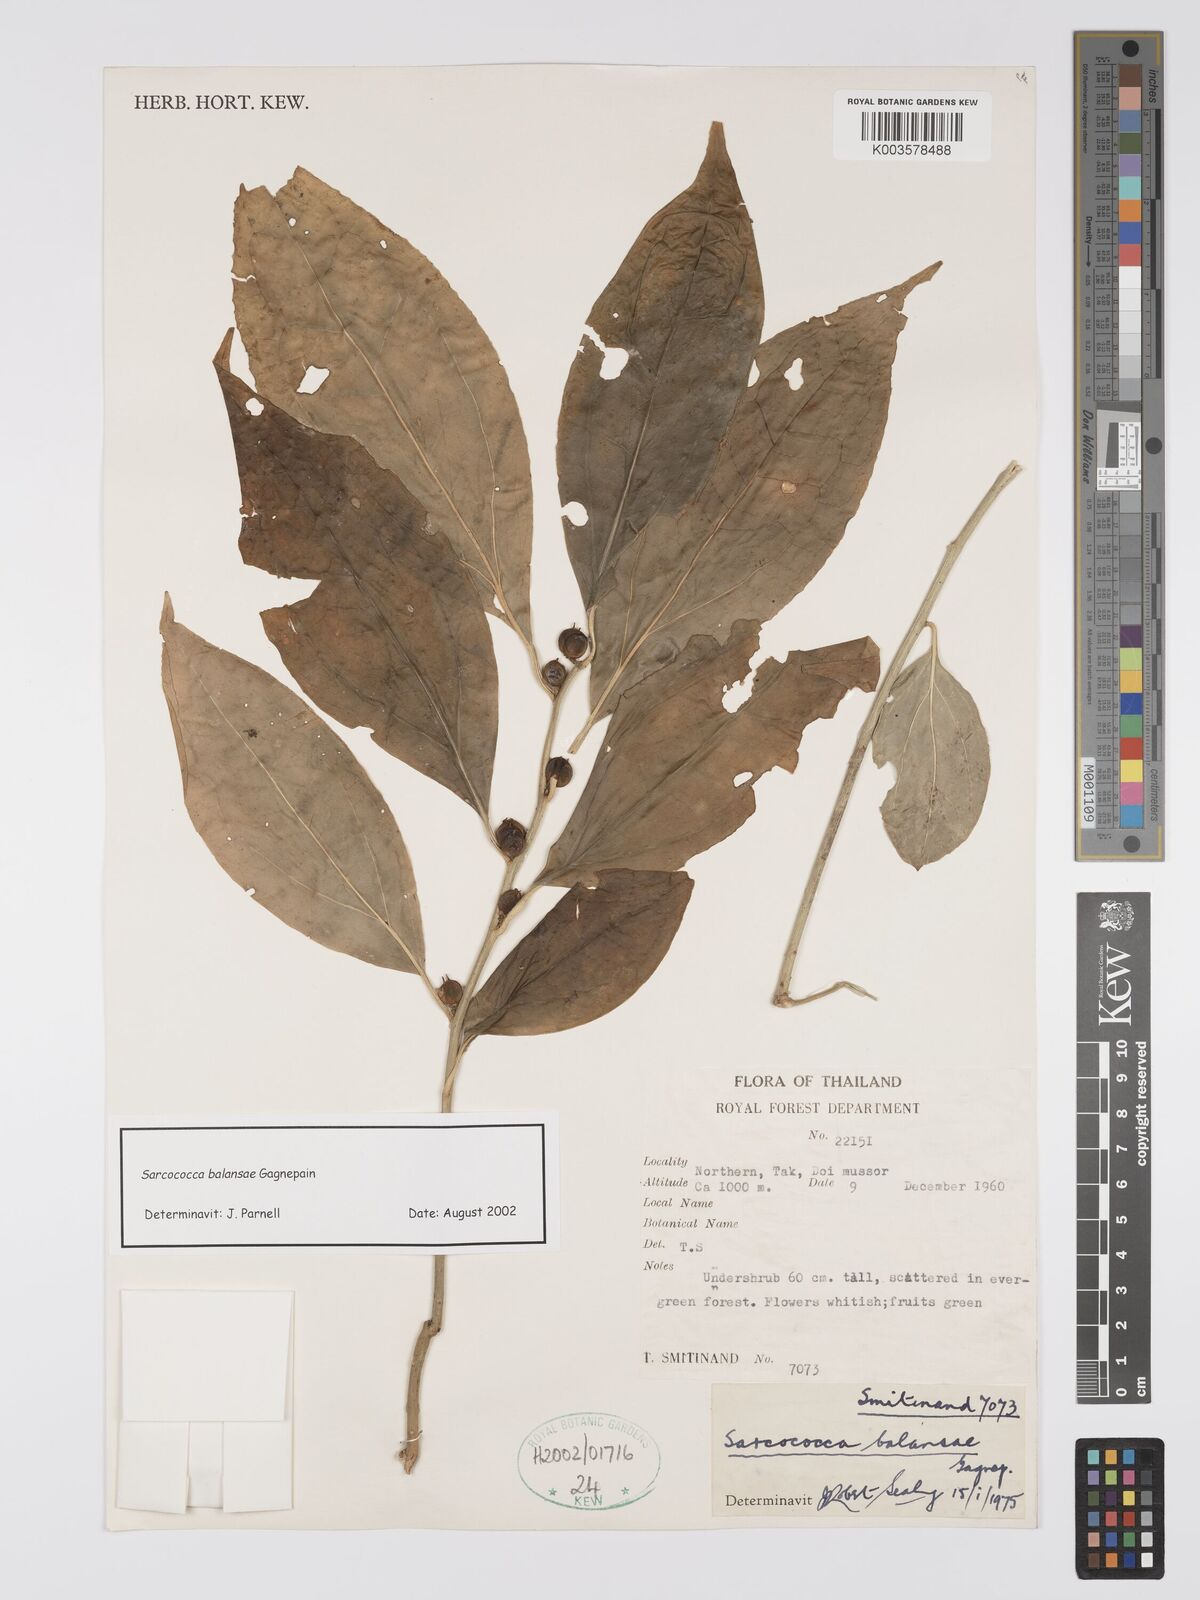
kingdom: Plantae
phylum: Tracheophyta
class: Magnoliopsida
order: Buxales
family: Buxaceae
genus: Sarcococca
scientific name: Sarcococca balansae
